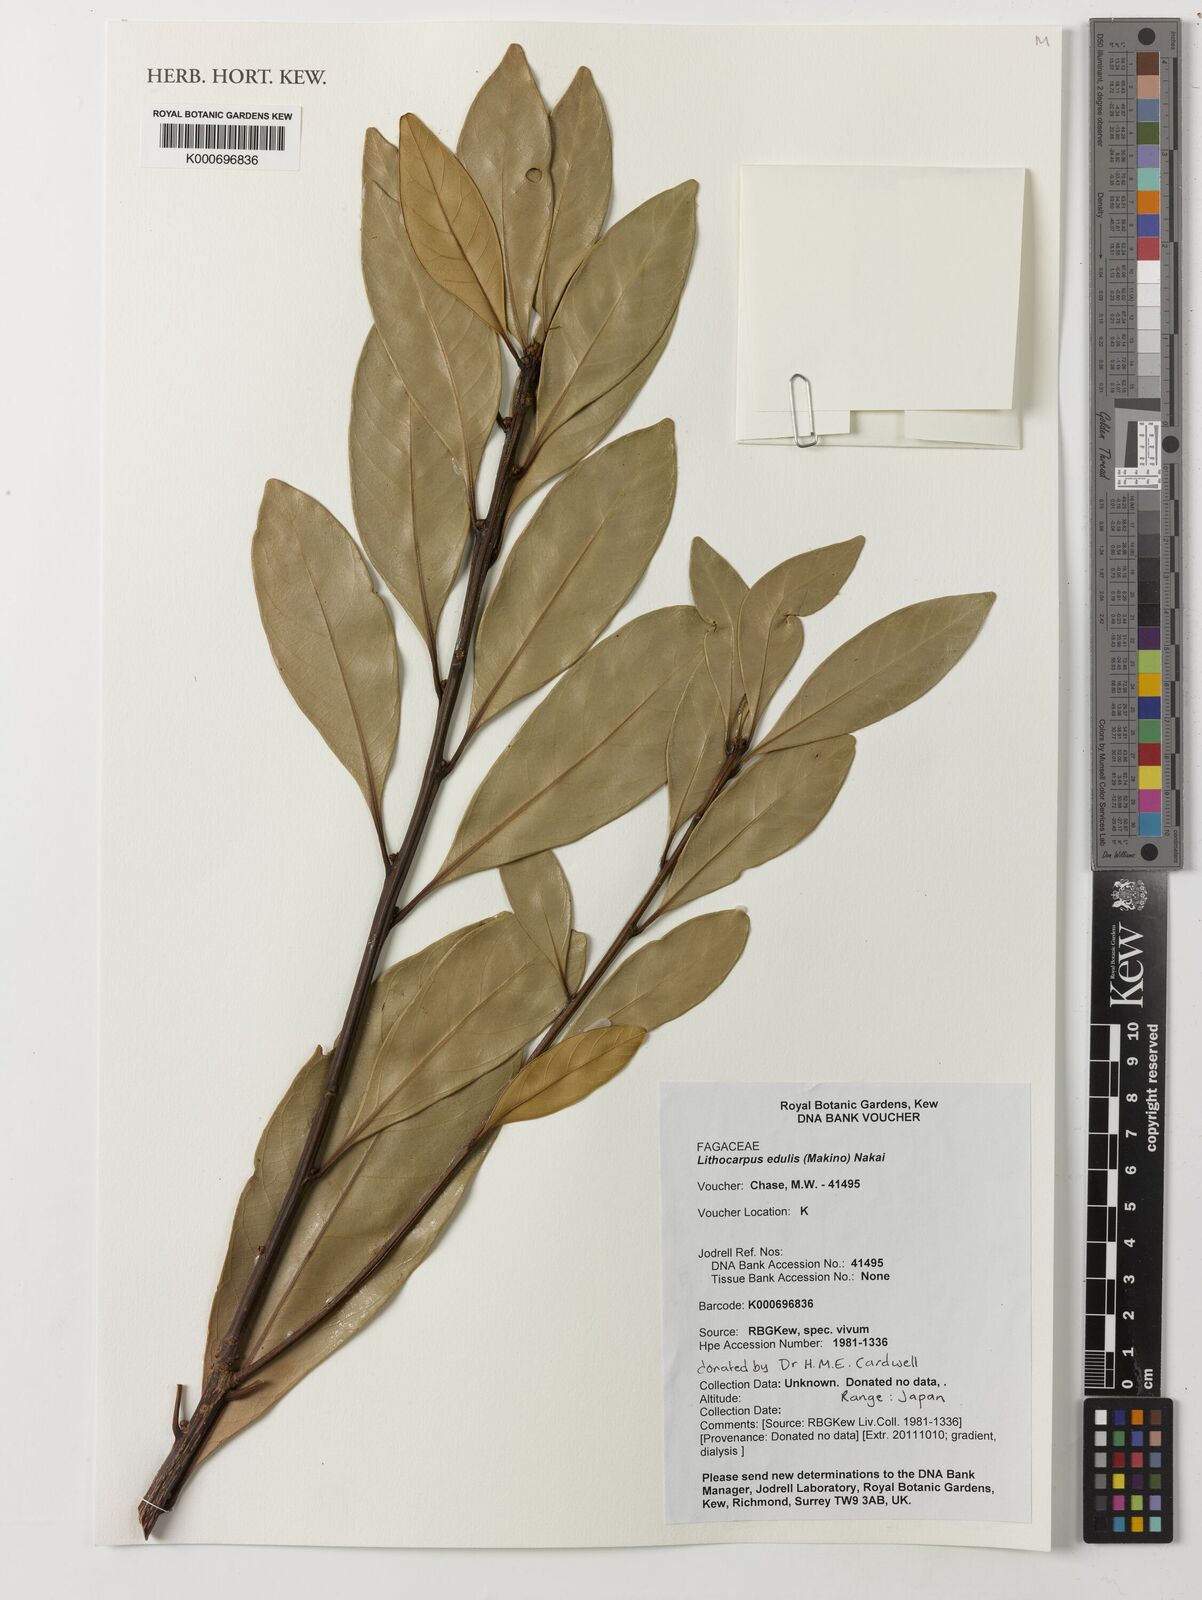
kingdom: Plantae
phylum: Tracheophyta
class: Magnoliopsida
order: Fagales
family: Fagaceae
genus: Lithocarpus
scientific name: Lithocarpus edulis
